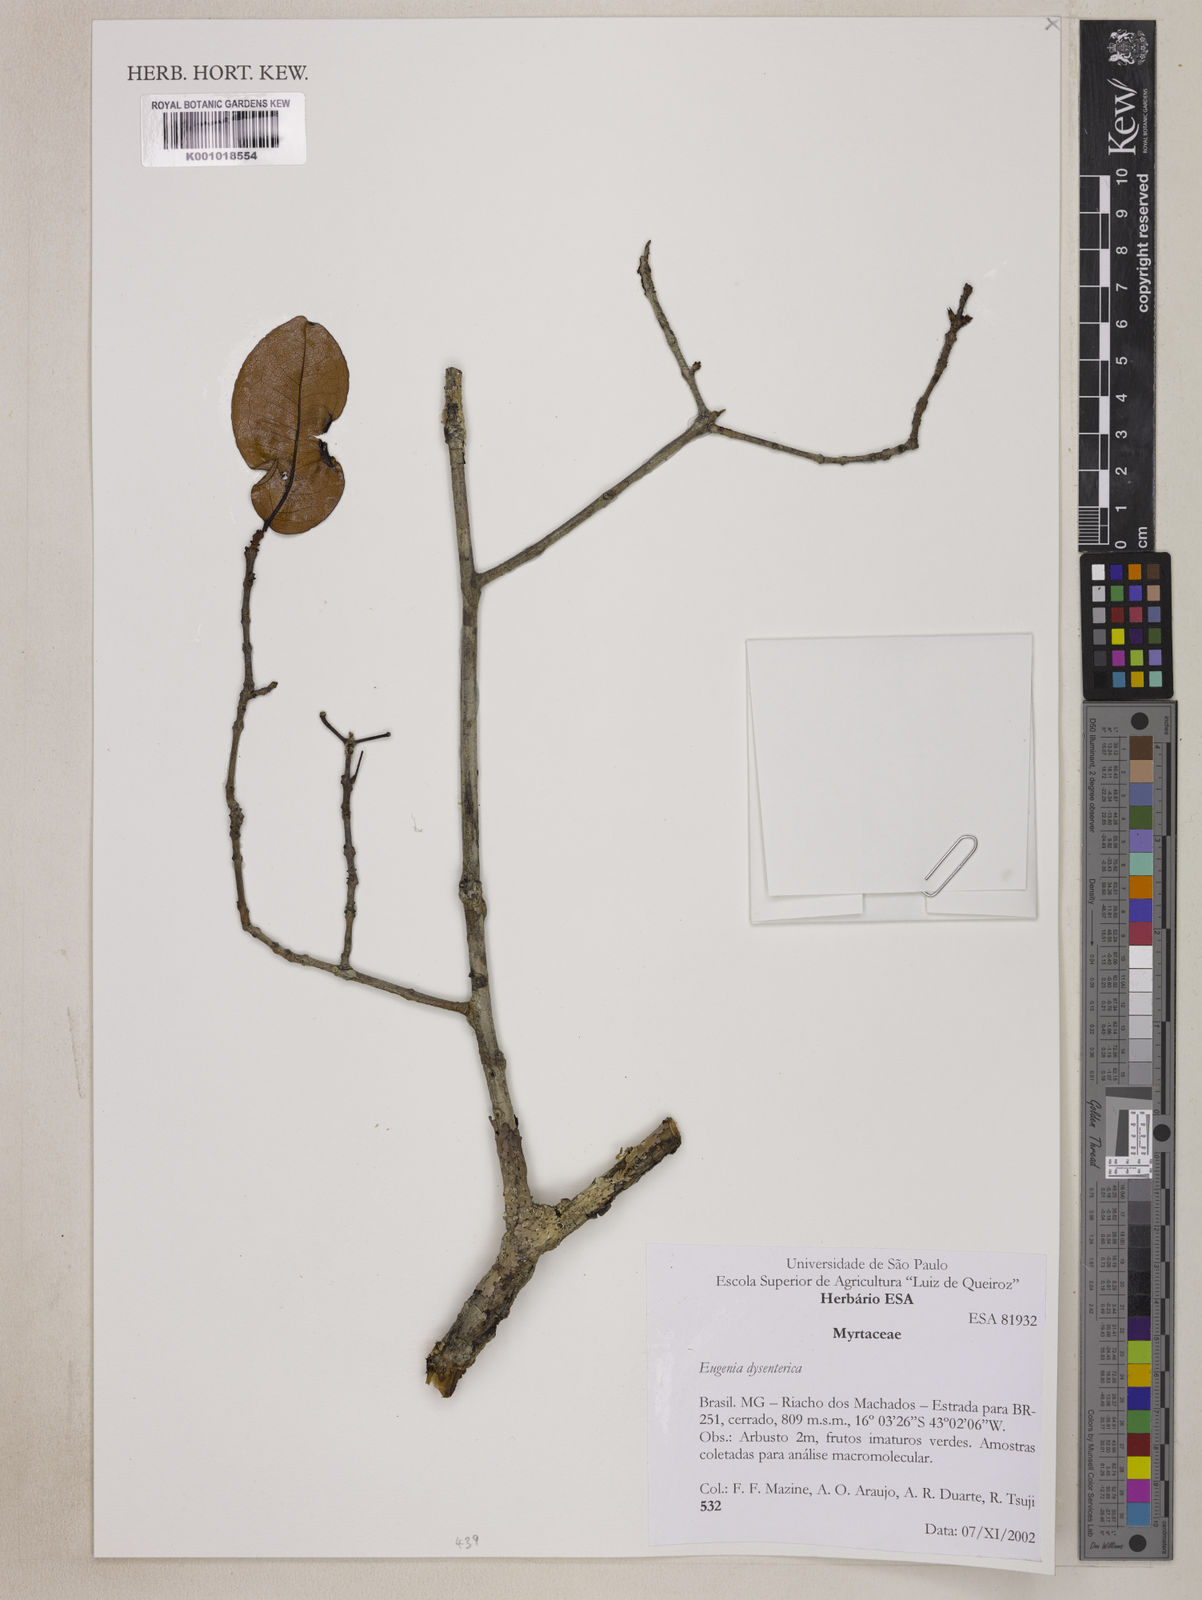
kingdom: Plantae
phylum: Tracheophyta
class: Magnoliopsida
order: Myrtales
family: Myrtaceae
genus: Eugenia
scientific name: Eugenia dysenterica
